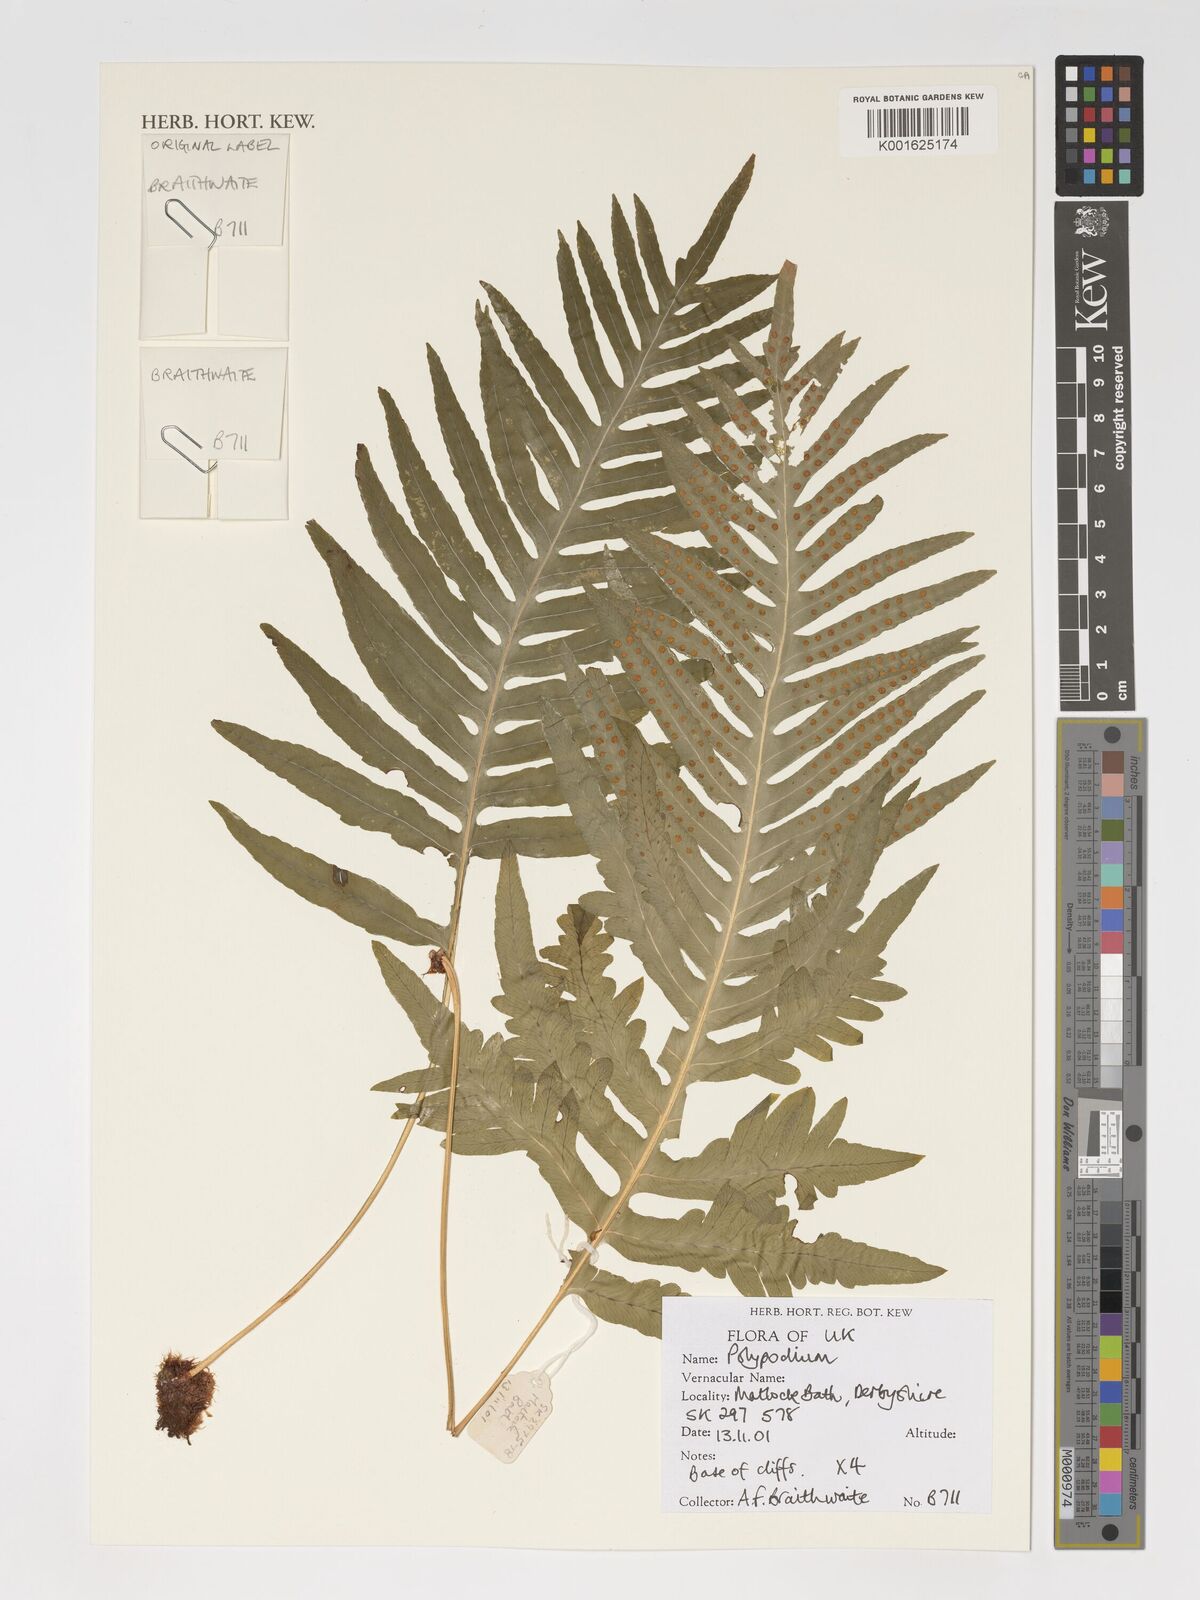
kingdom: Plantae
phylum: Tracheophyta
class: Polypodiopsida
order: Polypodiales
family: Polypodiaceae
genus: Polypodium
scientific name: Polypodium
